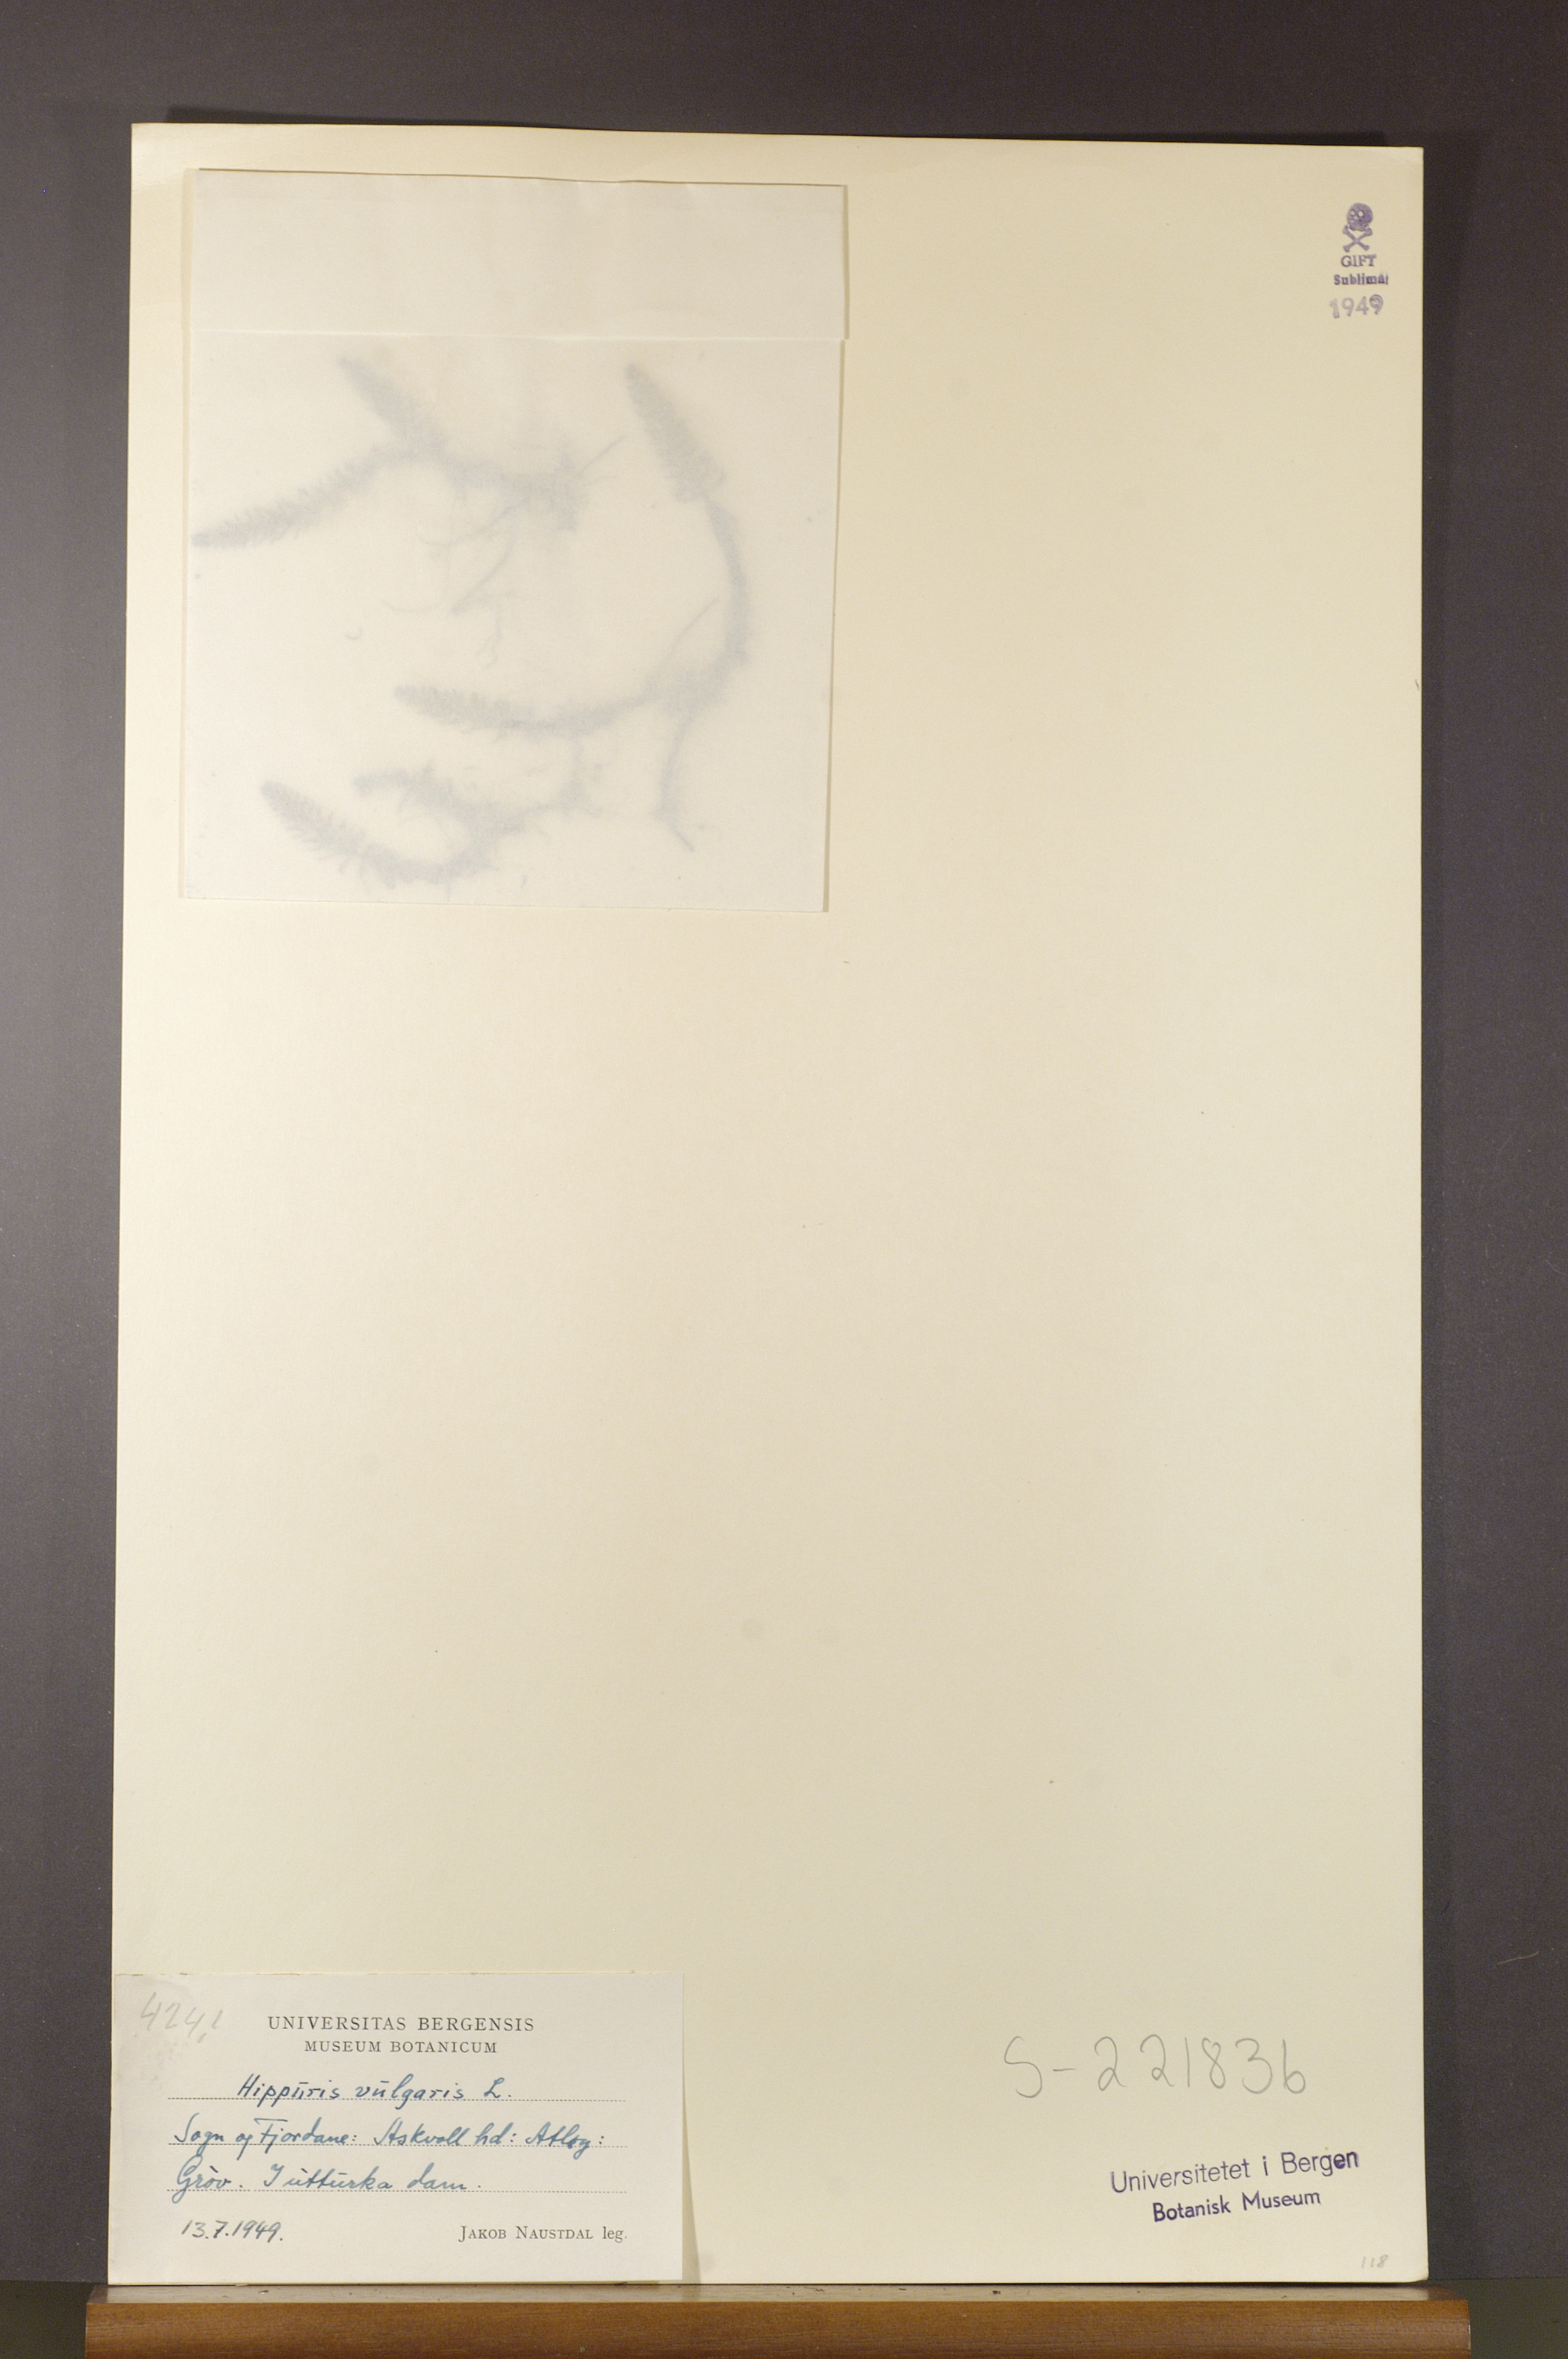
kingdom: Plantae
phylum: Tracheophyta
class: Magnoliopsida
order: Lamiales
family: Plantaginaceae
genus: Hippuris
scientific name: Hippuris vulgaris
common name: Mare's-tail
